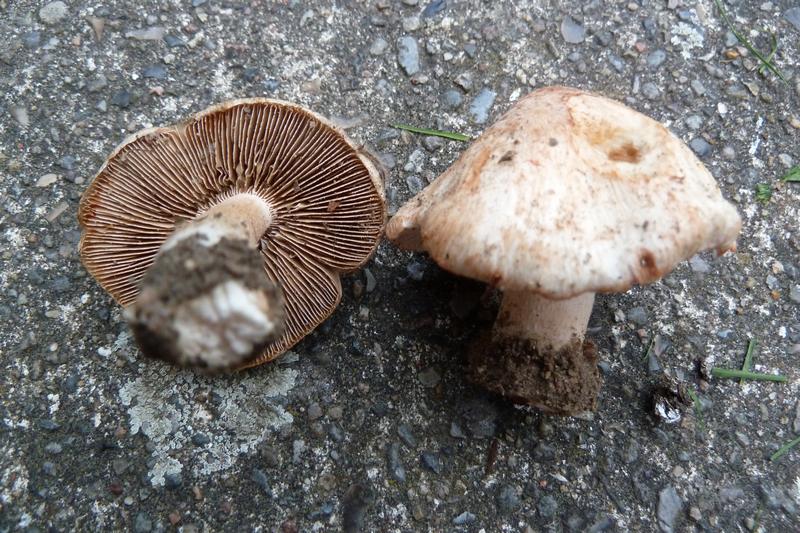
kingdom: Fungi
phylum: Basidiomycota
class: Agaricomycetes
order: Agaricales
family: Inocybaceae
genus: Inosperma
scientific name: Inosperma erubescens
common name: giftig trævlhat
